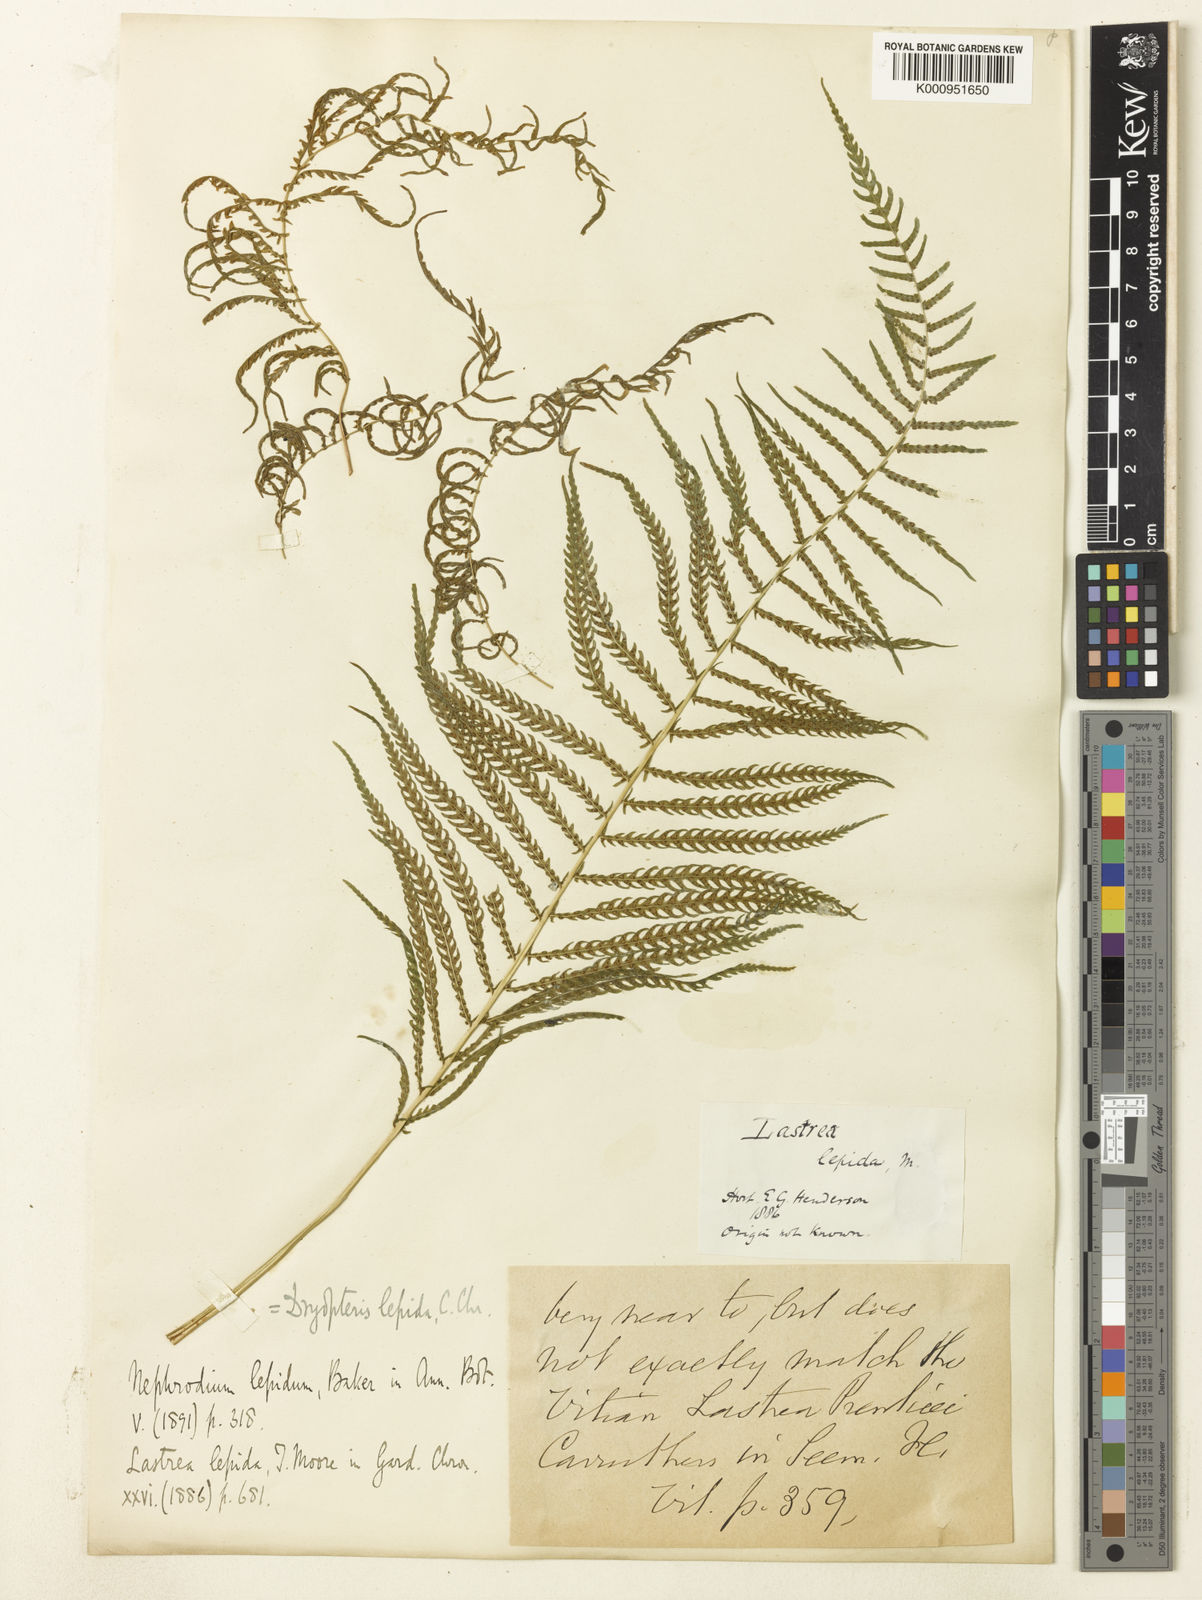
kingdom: Plantae
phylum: Tracheophyta
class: Polypodiopsida
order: Polypodiales
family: Thelypteridaceae
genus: Christella
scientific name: Christella
